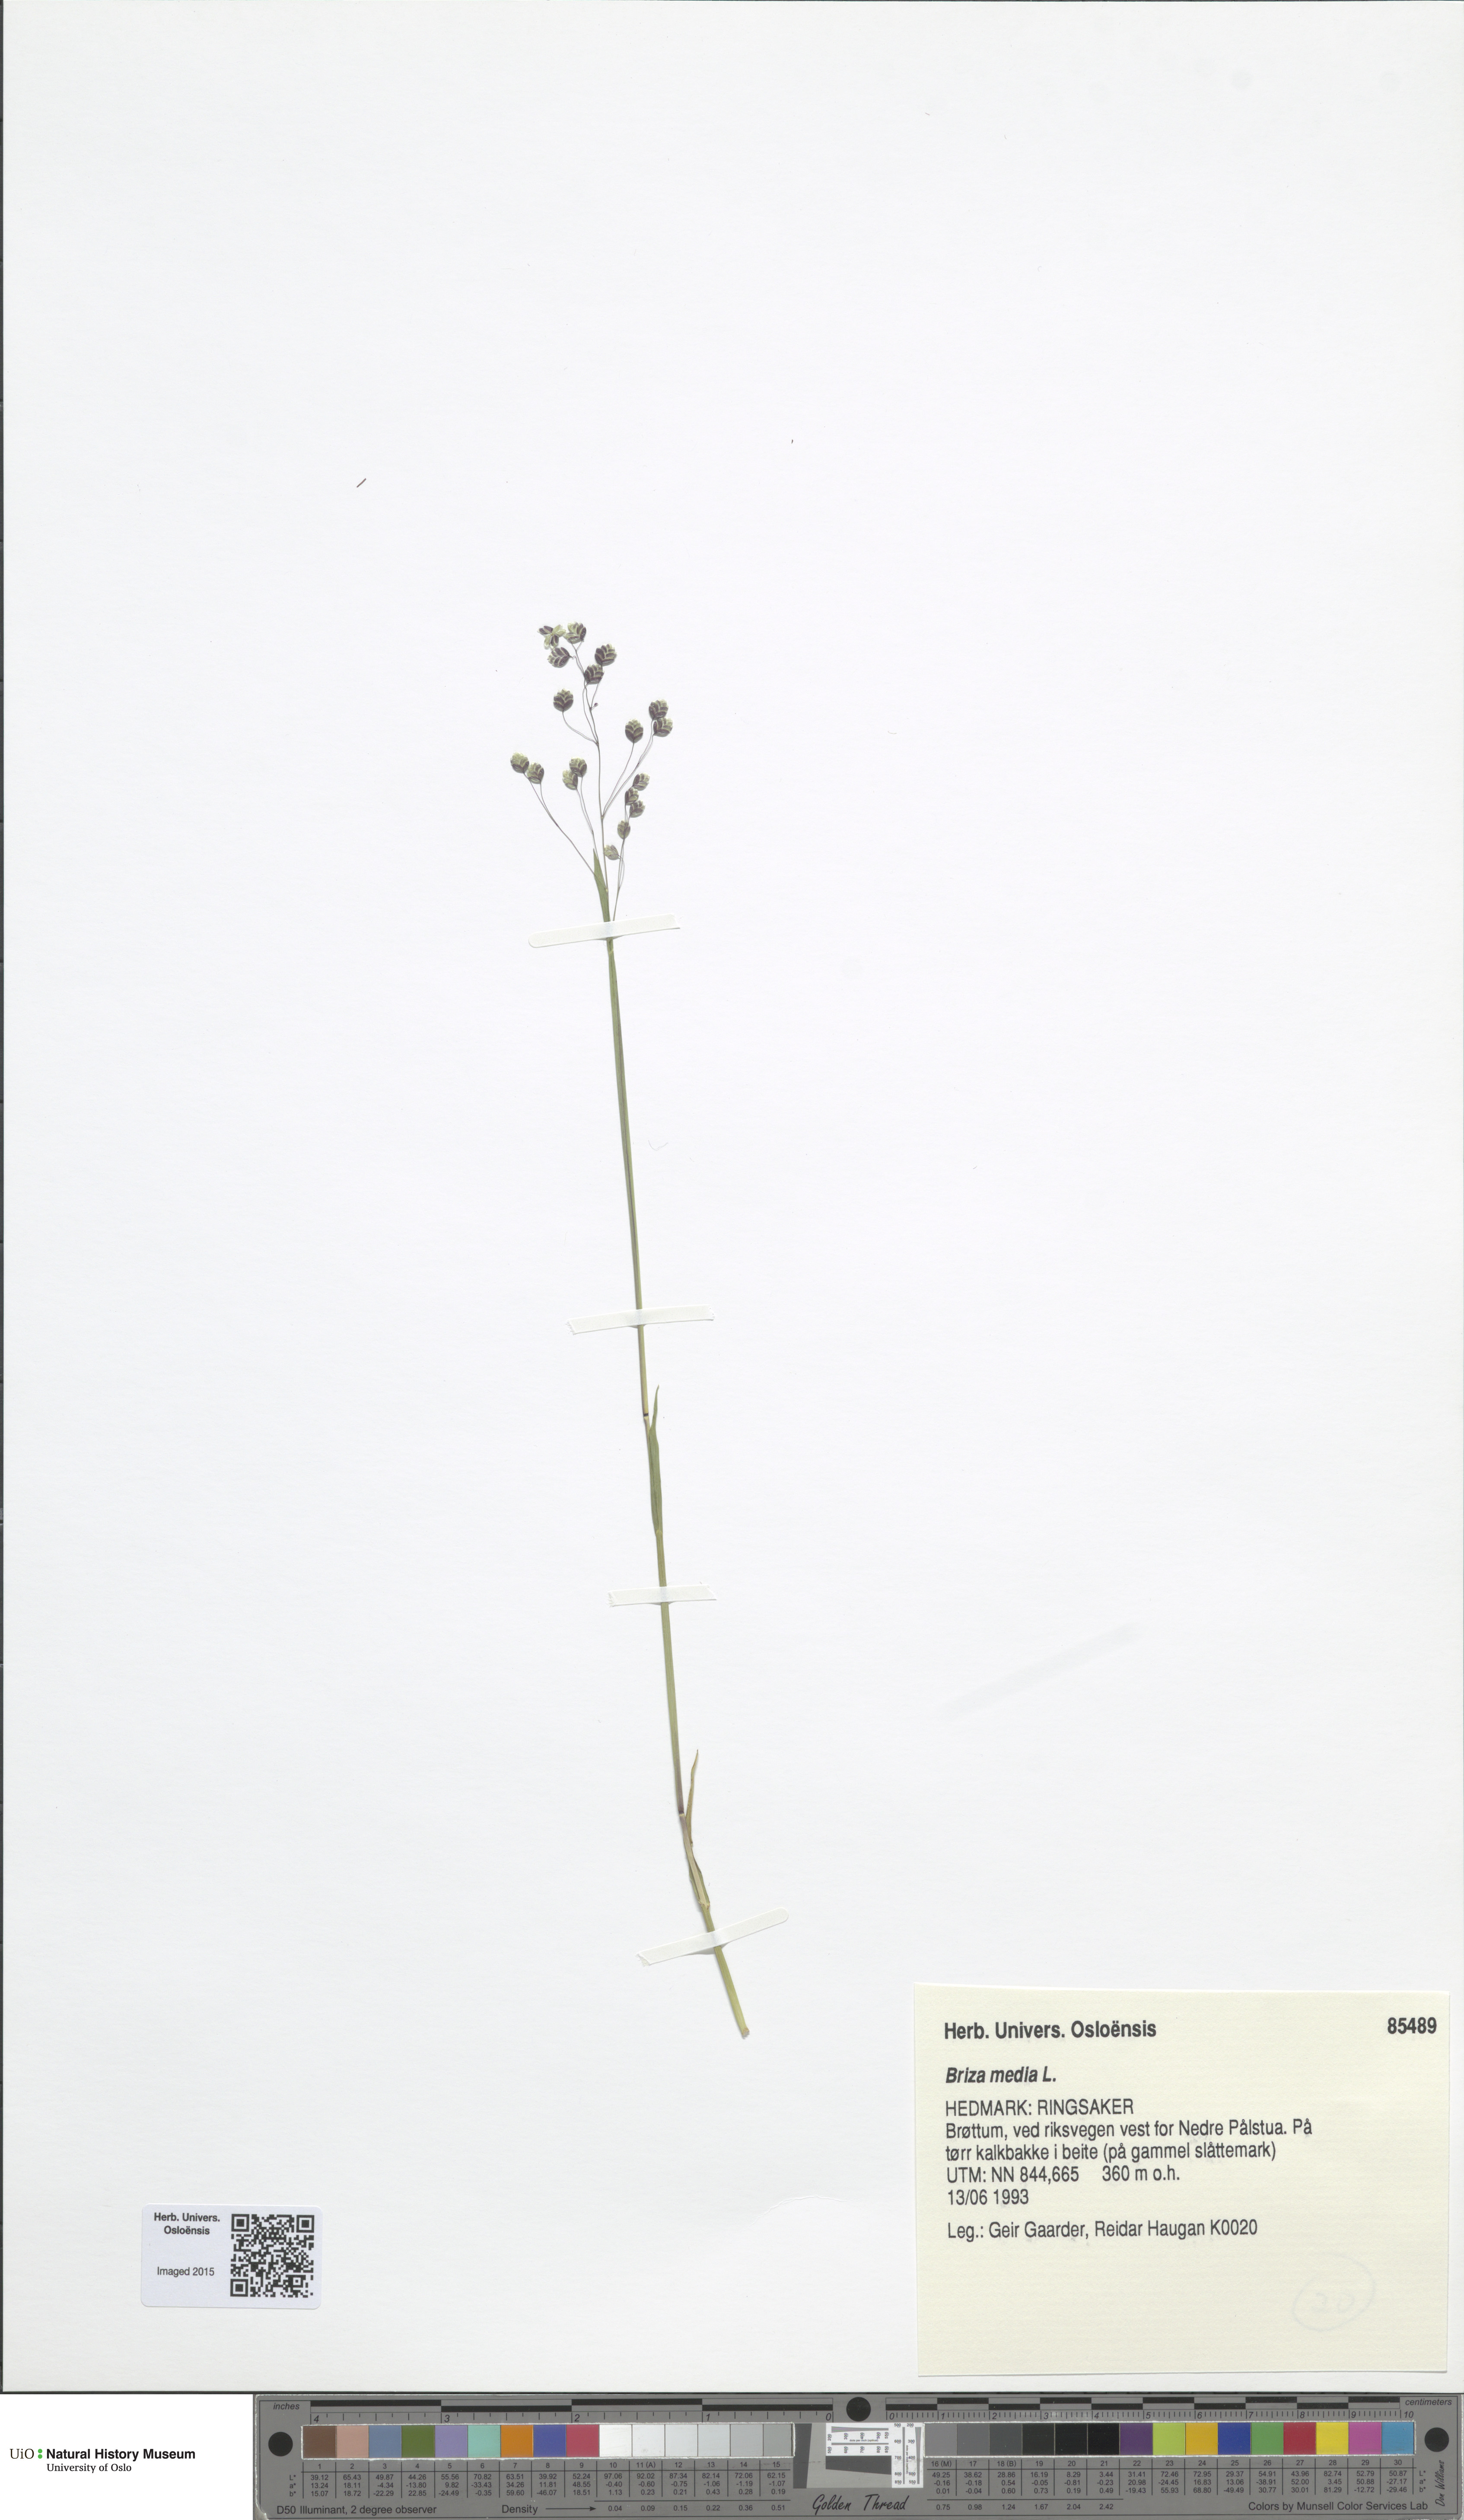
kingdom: Plantae
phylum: Tracheophyta
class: Liliopsida
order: Poales
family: Poaceae
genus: Briza
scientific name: Briza media
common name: Quaking grass
